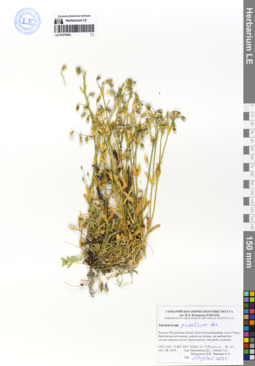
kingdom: Plantae
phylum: Tracheophyta
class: Magnoliopsida
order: Caryophyllales
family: Caryophyllaceae
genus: Cerastium
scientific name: Cerastium pusillum
